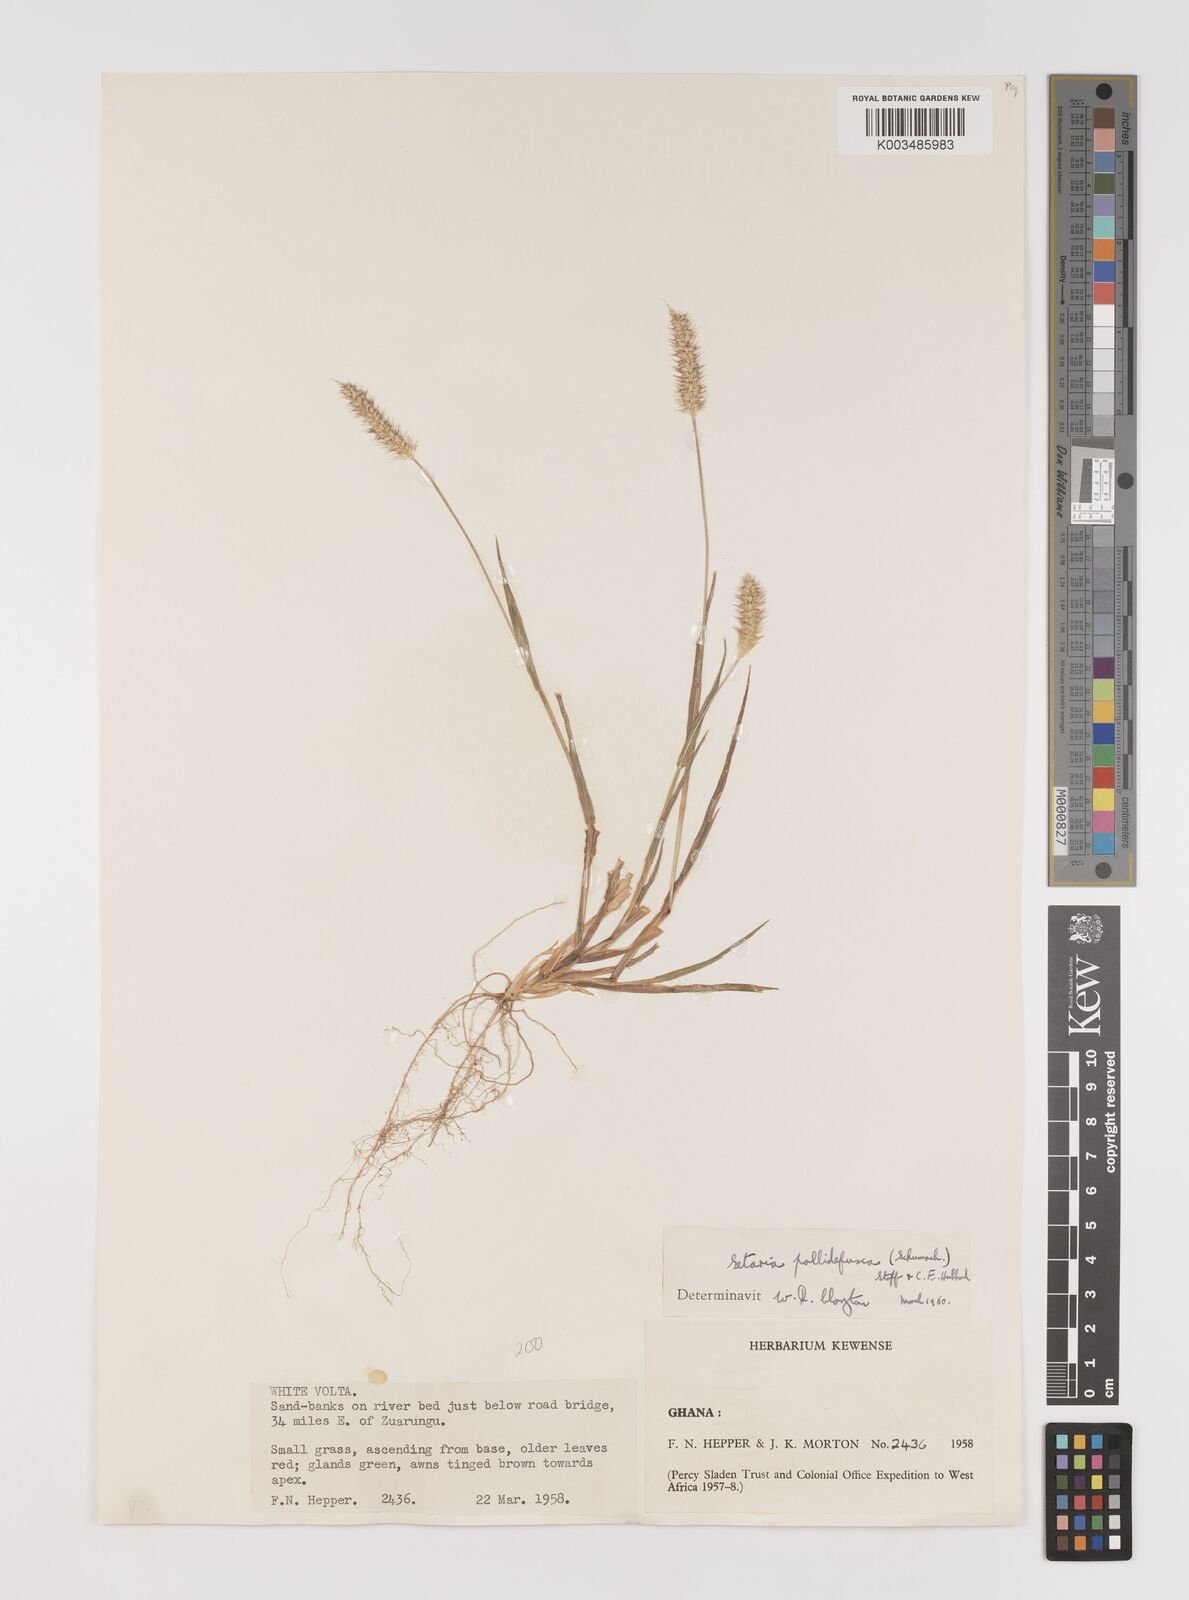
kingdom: Plantae
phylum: Tracheophyta
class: Liliopsida
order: Poales
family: Poaceae
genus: Setaria
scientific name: Setaria pumila
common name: Yellow bristle-grass
